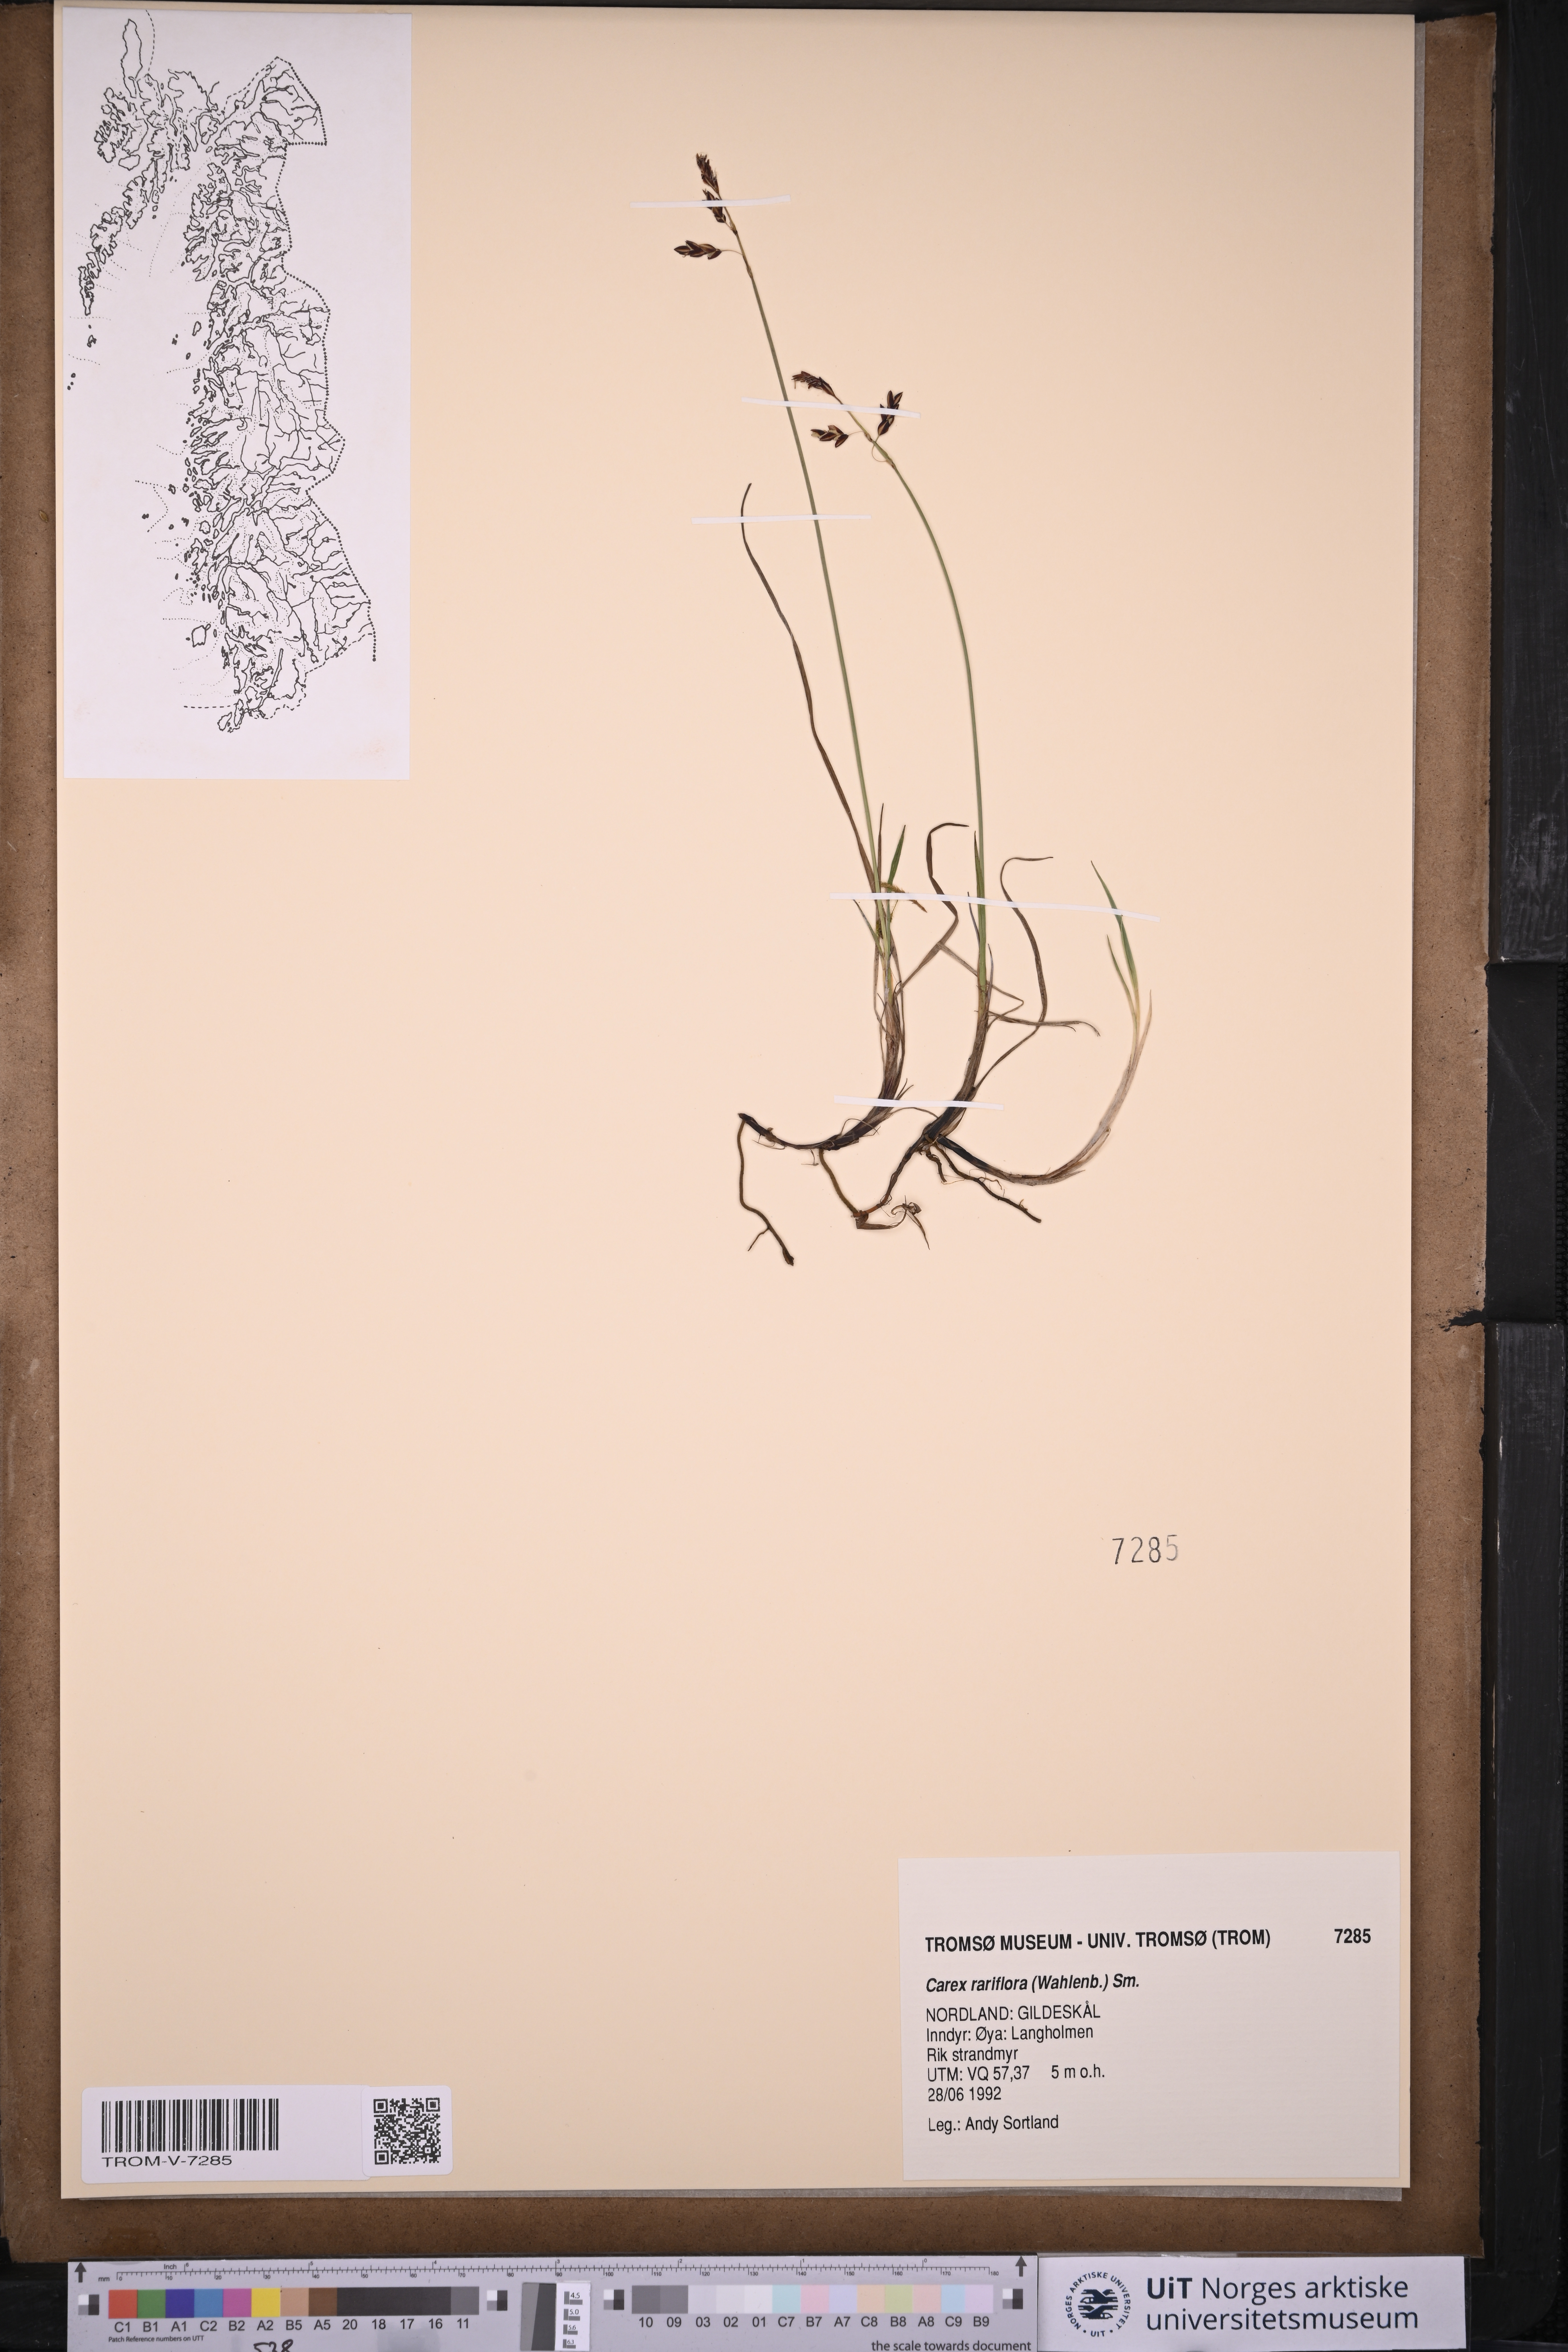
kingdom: Plantae
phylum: Tracheophyta
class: Liliopsida
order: Poales
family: Cyperaceae
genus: Carex
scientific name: Carex rariflora
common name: Loose-flowered alpine sedge
